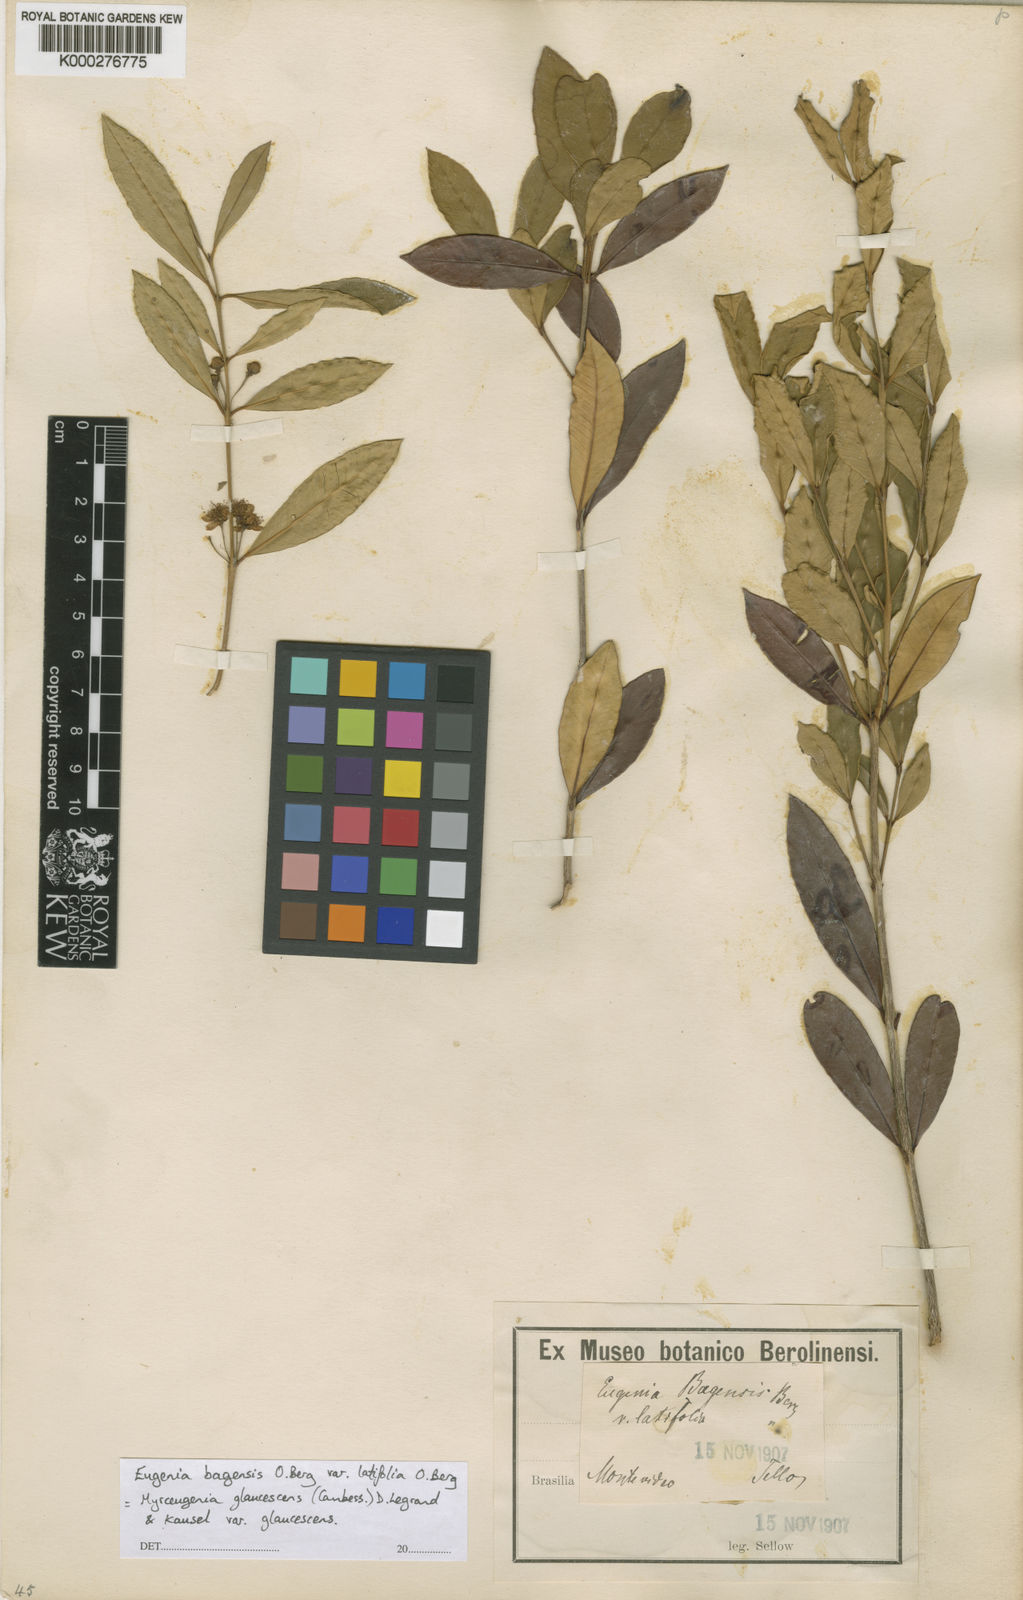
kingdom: Plantae
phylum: Tracheophyta
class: Magnoliopsida
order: Myrtales
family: Myrtaceae
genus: Myrceugenia
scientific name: Myrceugenia glaucescens
